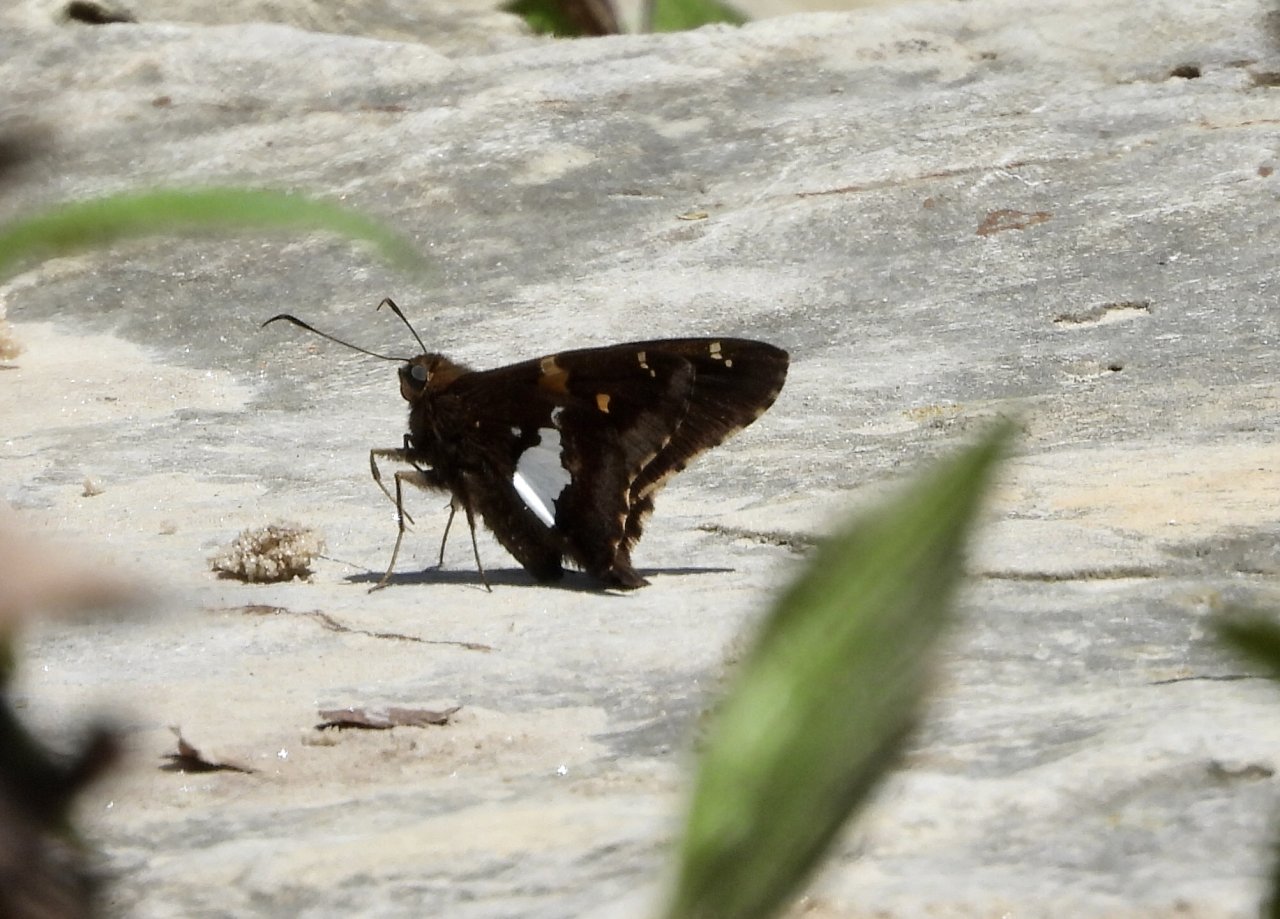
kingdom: Animalia
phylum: Arthropoda
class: Insecta
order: Lepidoptera
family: Hesperiidae
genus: Epargyreus
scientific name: Epargyreus clarus
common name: Silver-spotted Skipper
